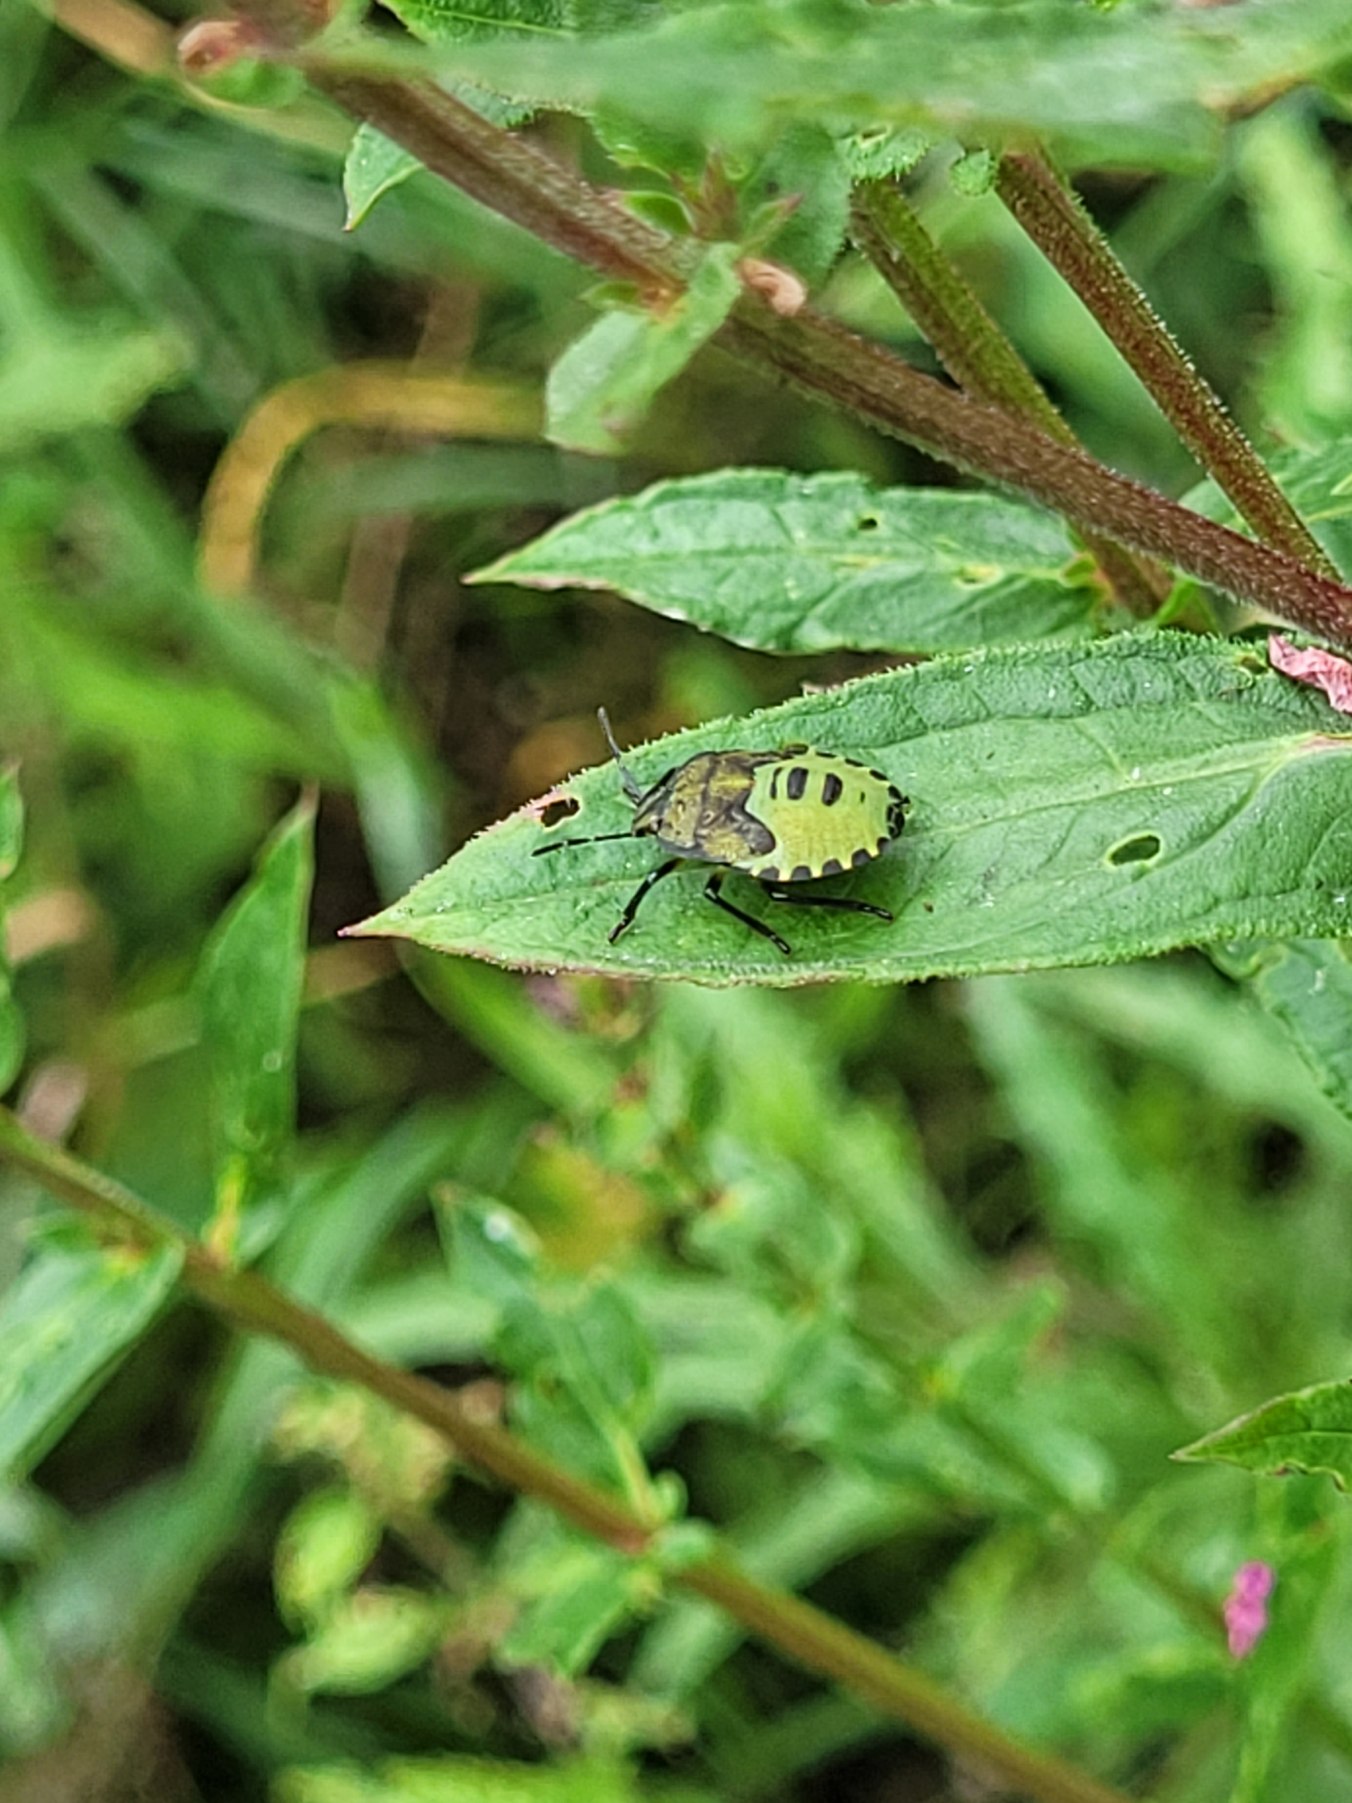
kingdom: Animalia
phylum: Arthropoda
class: Insecta
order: Hemiptera
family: Pentatomidae
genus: Palomena
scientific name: Palomena prasina
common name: Grøn bredtæge
